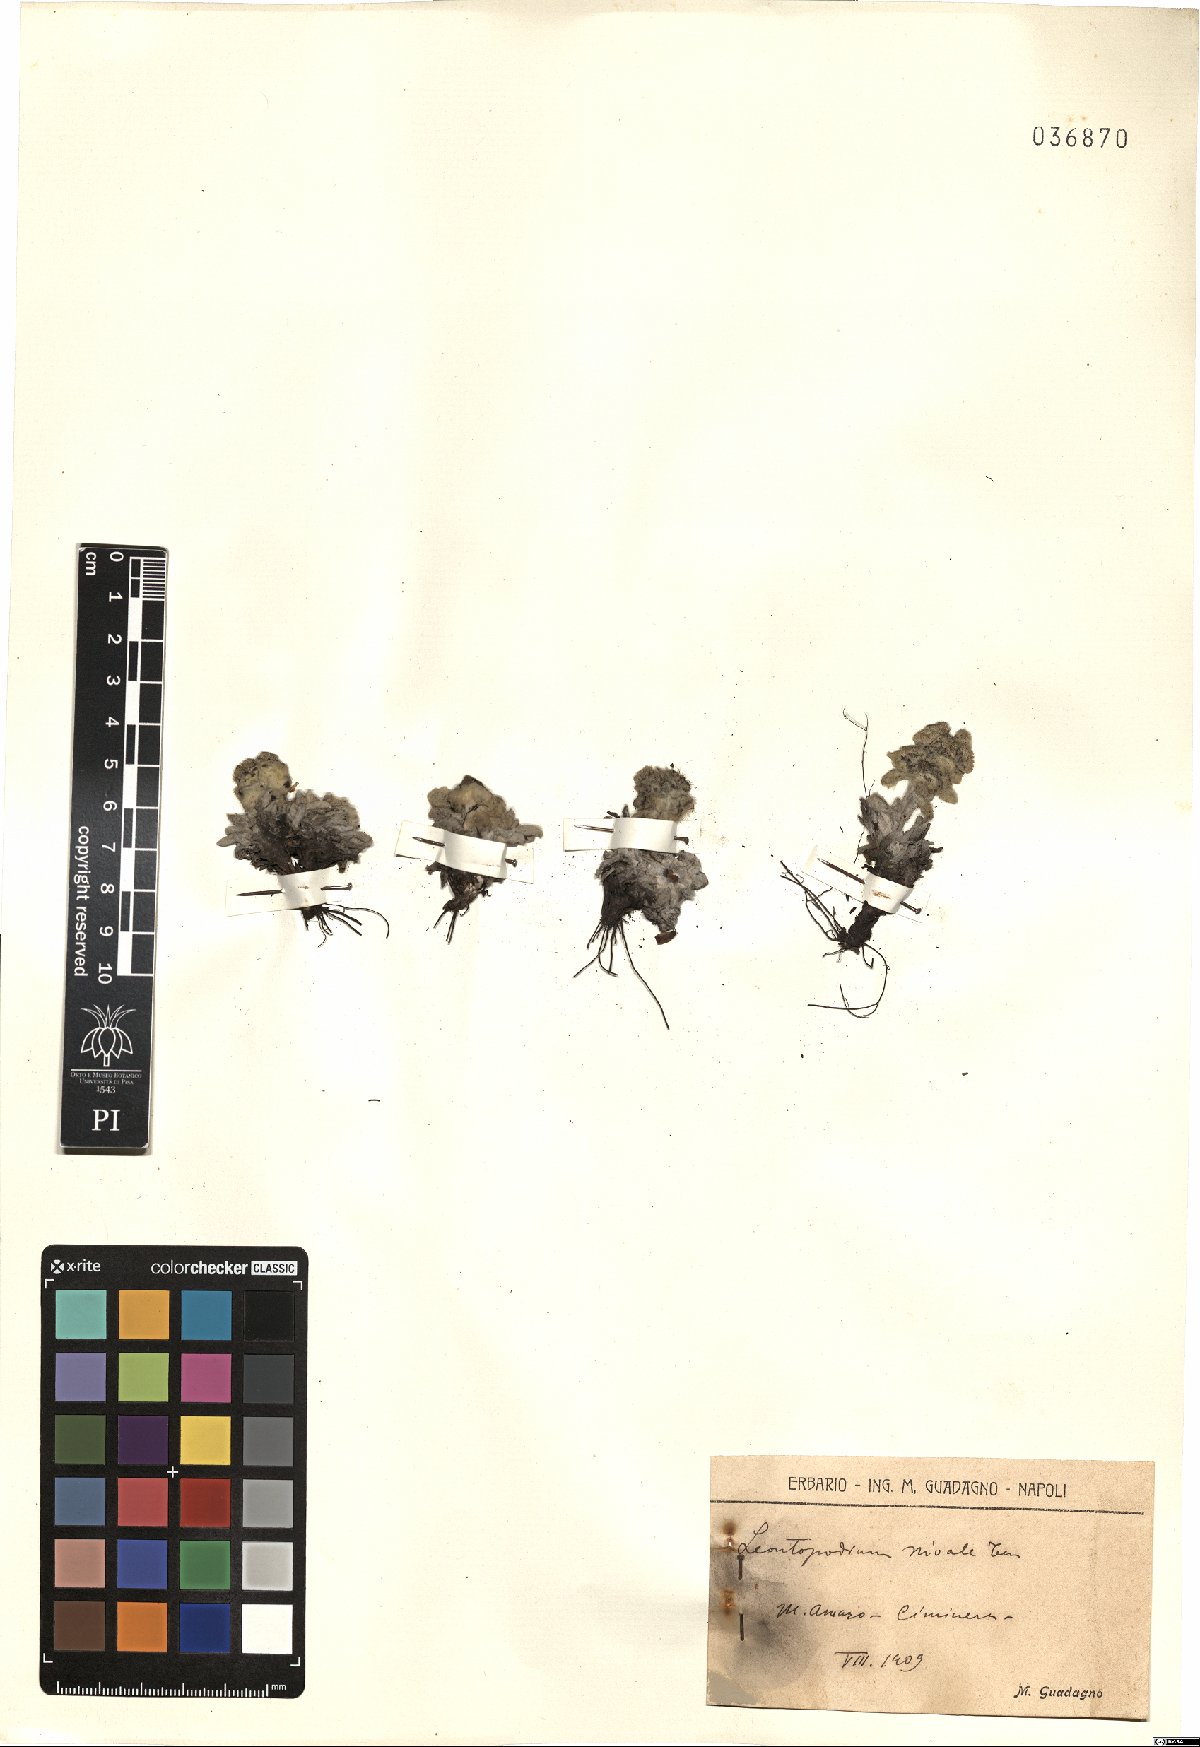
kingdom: Plantae
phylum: Tracheophyta
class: Magnoliopsida
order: Asterales
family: Asteraceae
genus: Leontopodium
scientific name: Leontopodium nivale
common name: Edelweiss
